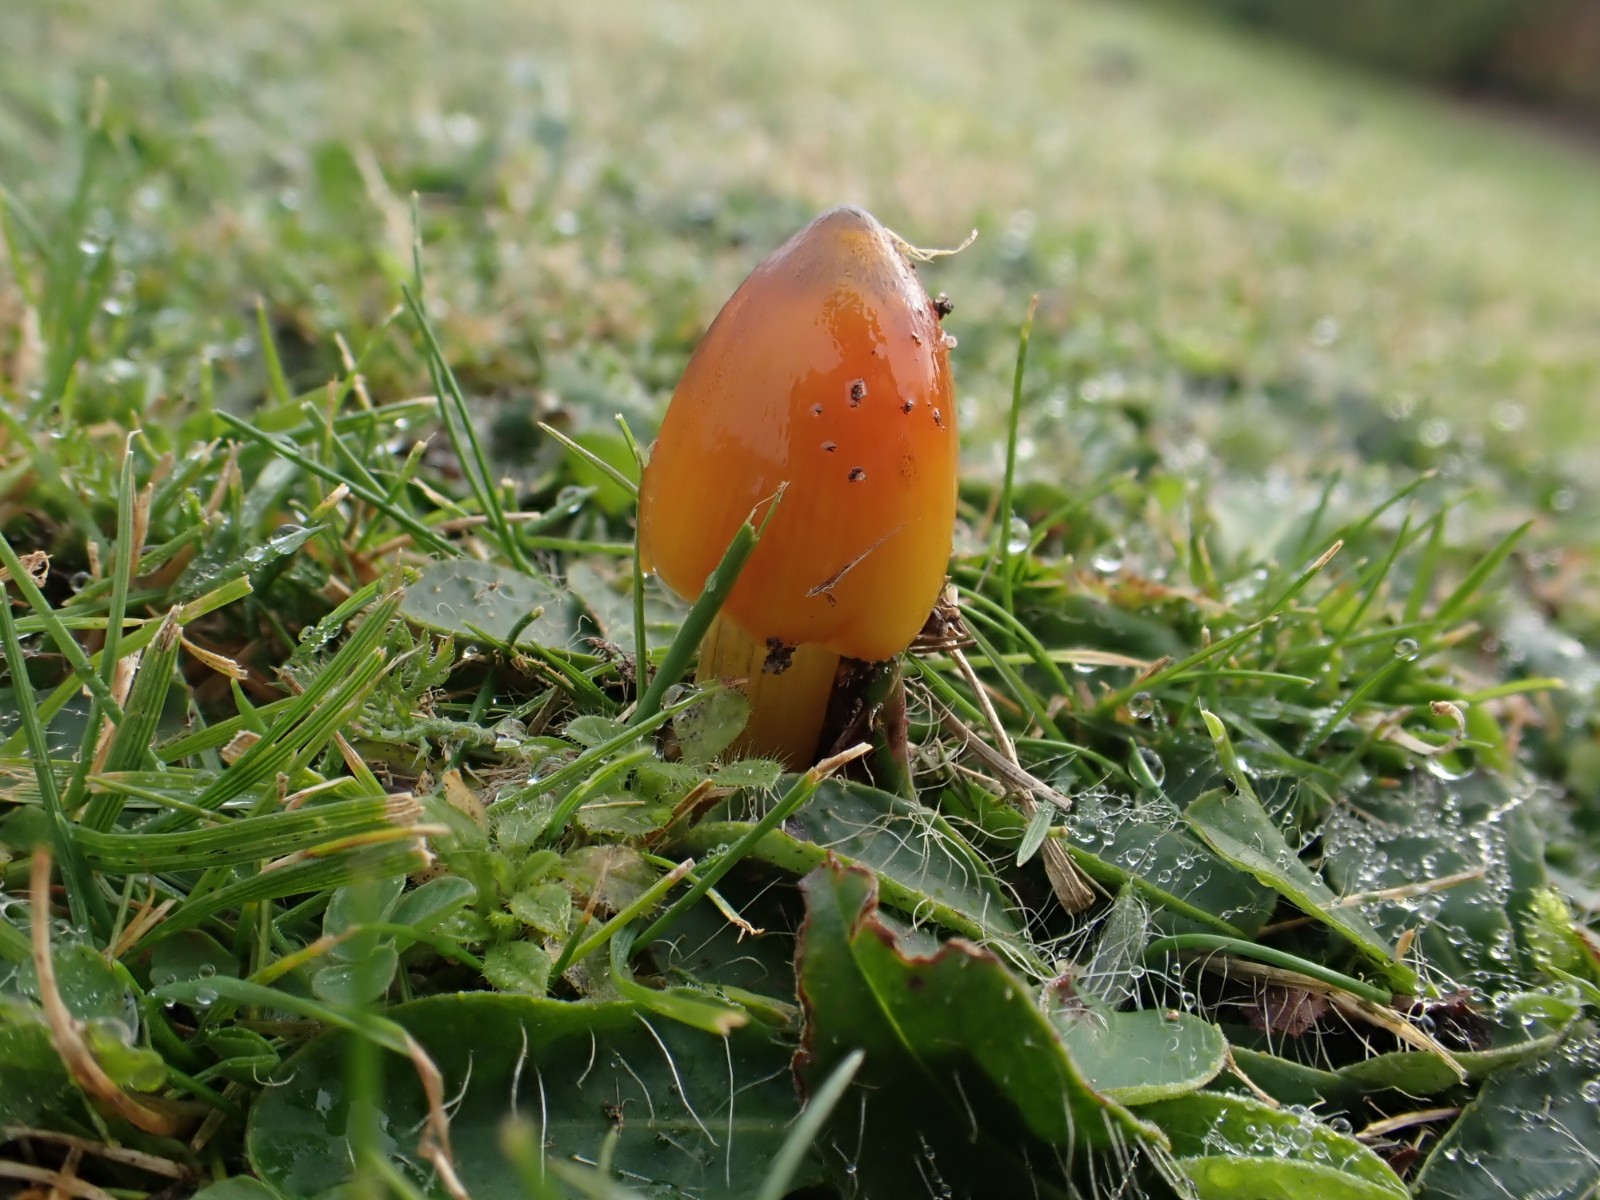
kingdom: Fungi
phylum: Basidiomycota
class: Agaricomycetes
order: Agaricales
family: Hygrophoraceae
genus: Hygrocybe
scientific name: Hygrocybe conica
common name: kegle-vokshat
